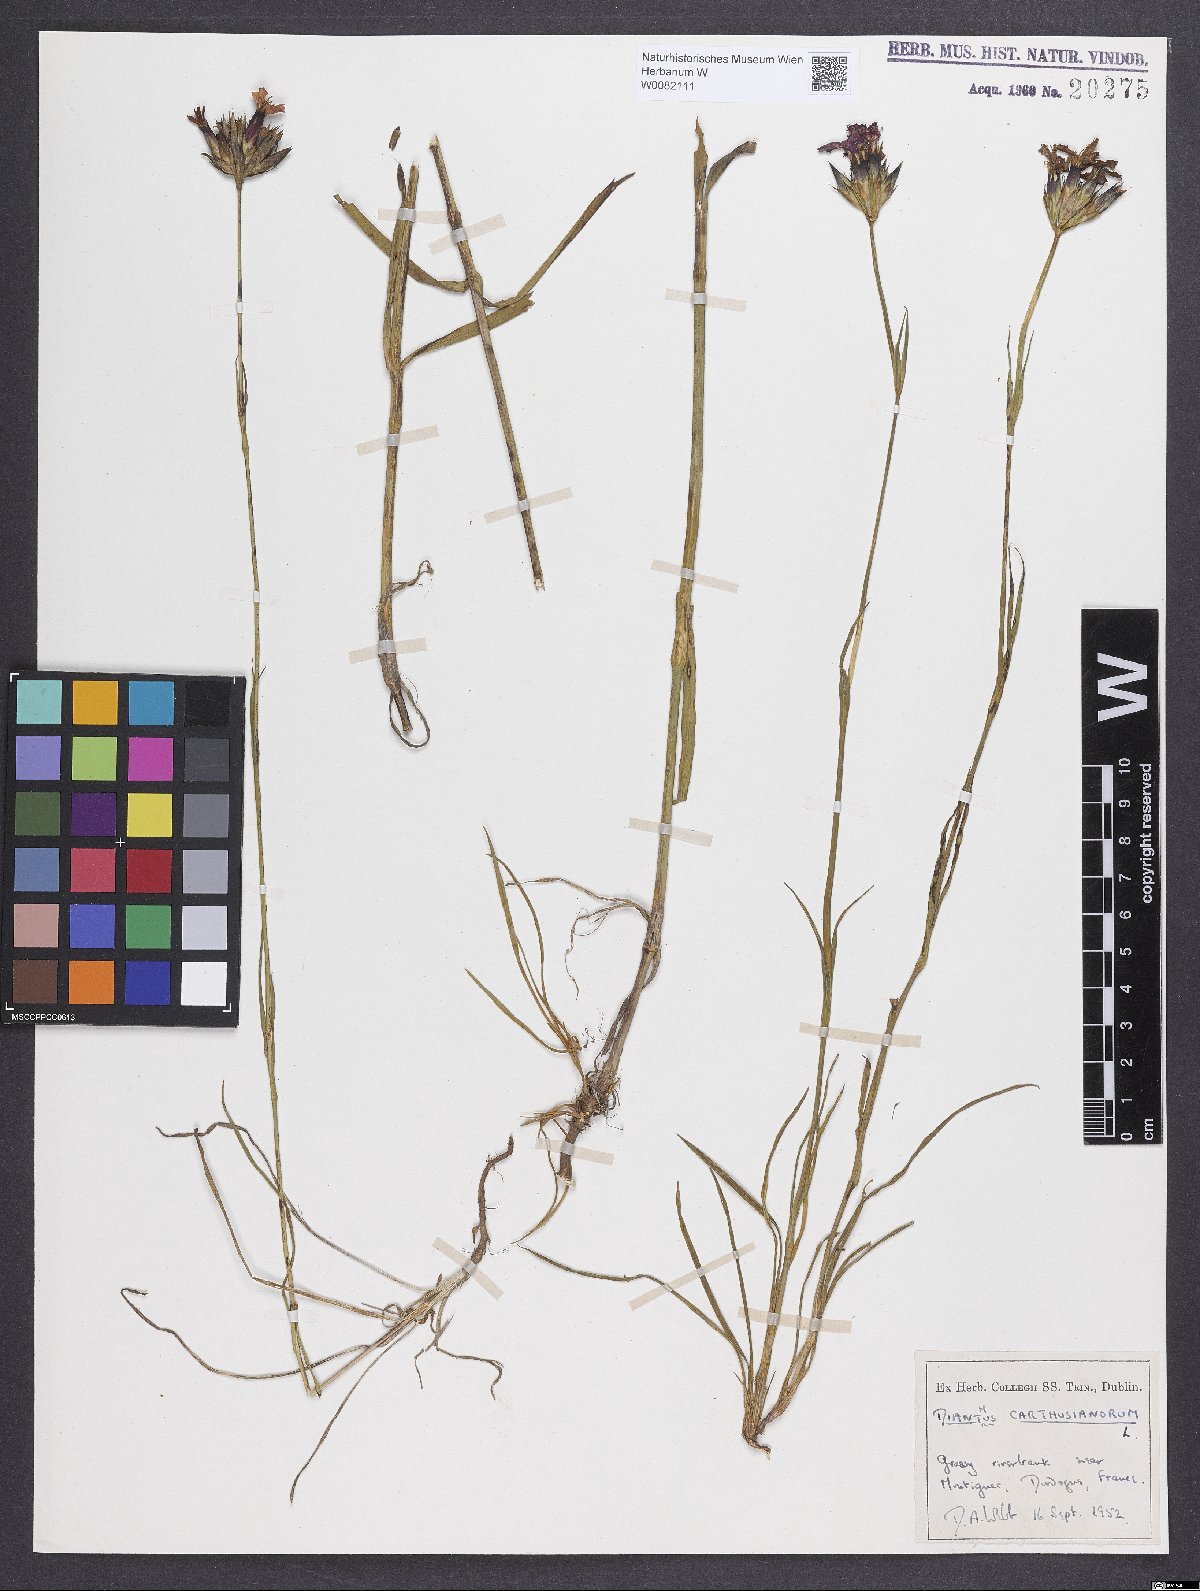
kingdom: Plantae
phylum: Tracheophyta
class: Magnoliopsida
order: Caryophyllales
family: Caryophyllaceae
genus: Dianthus
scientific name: Dianthus carthusianorum
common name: Carthusian pink
